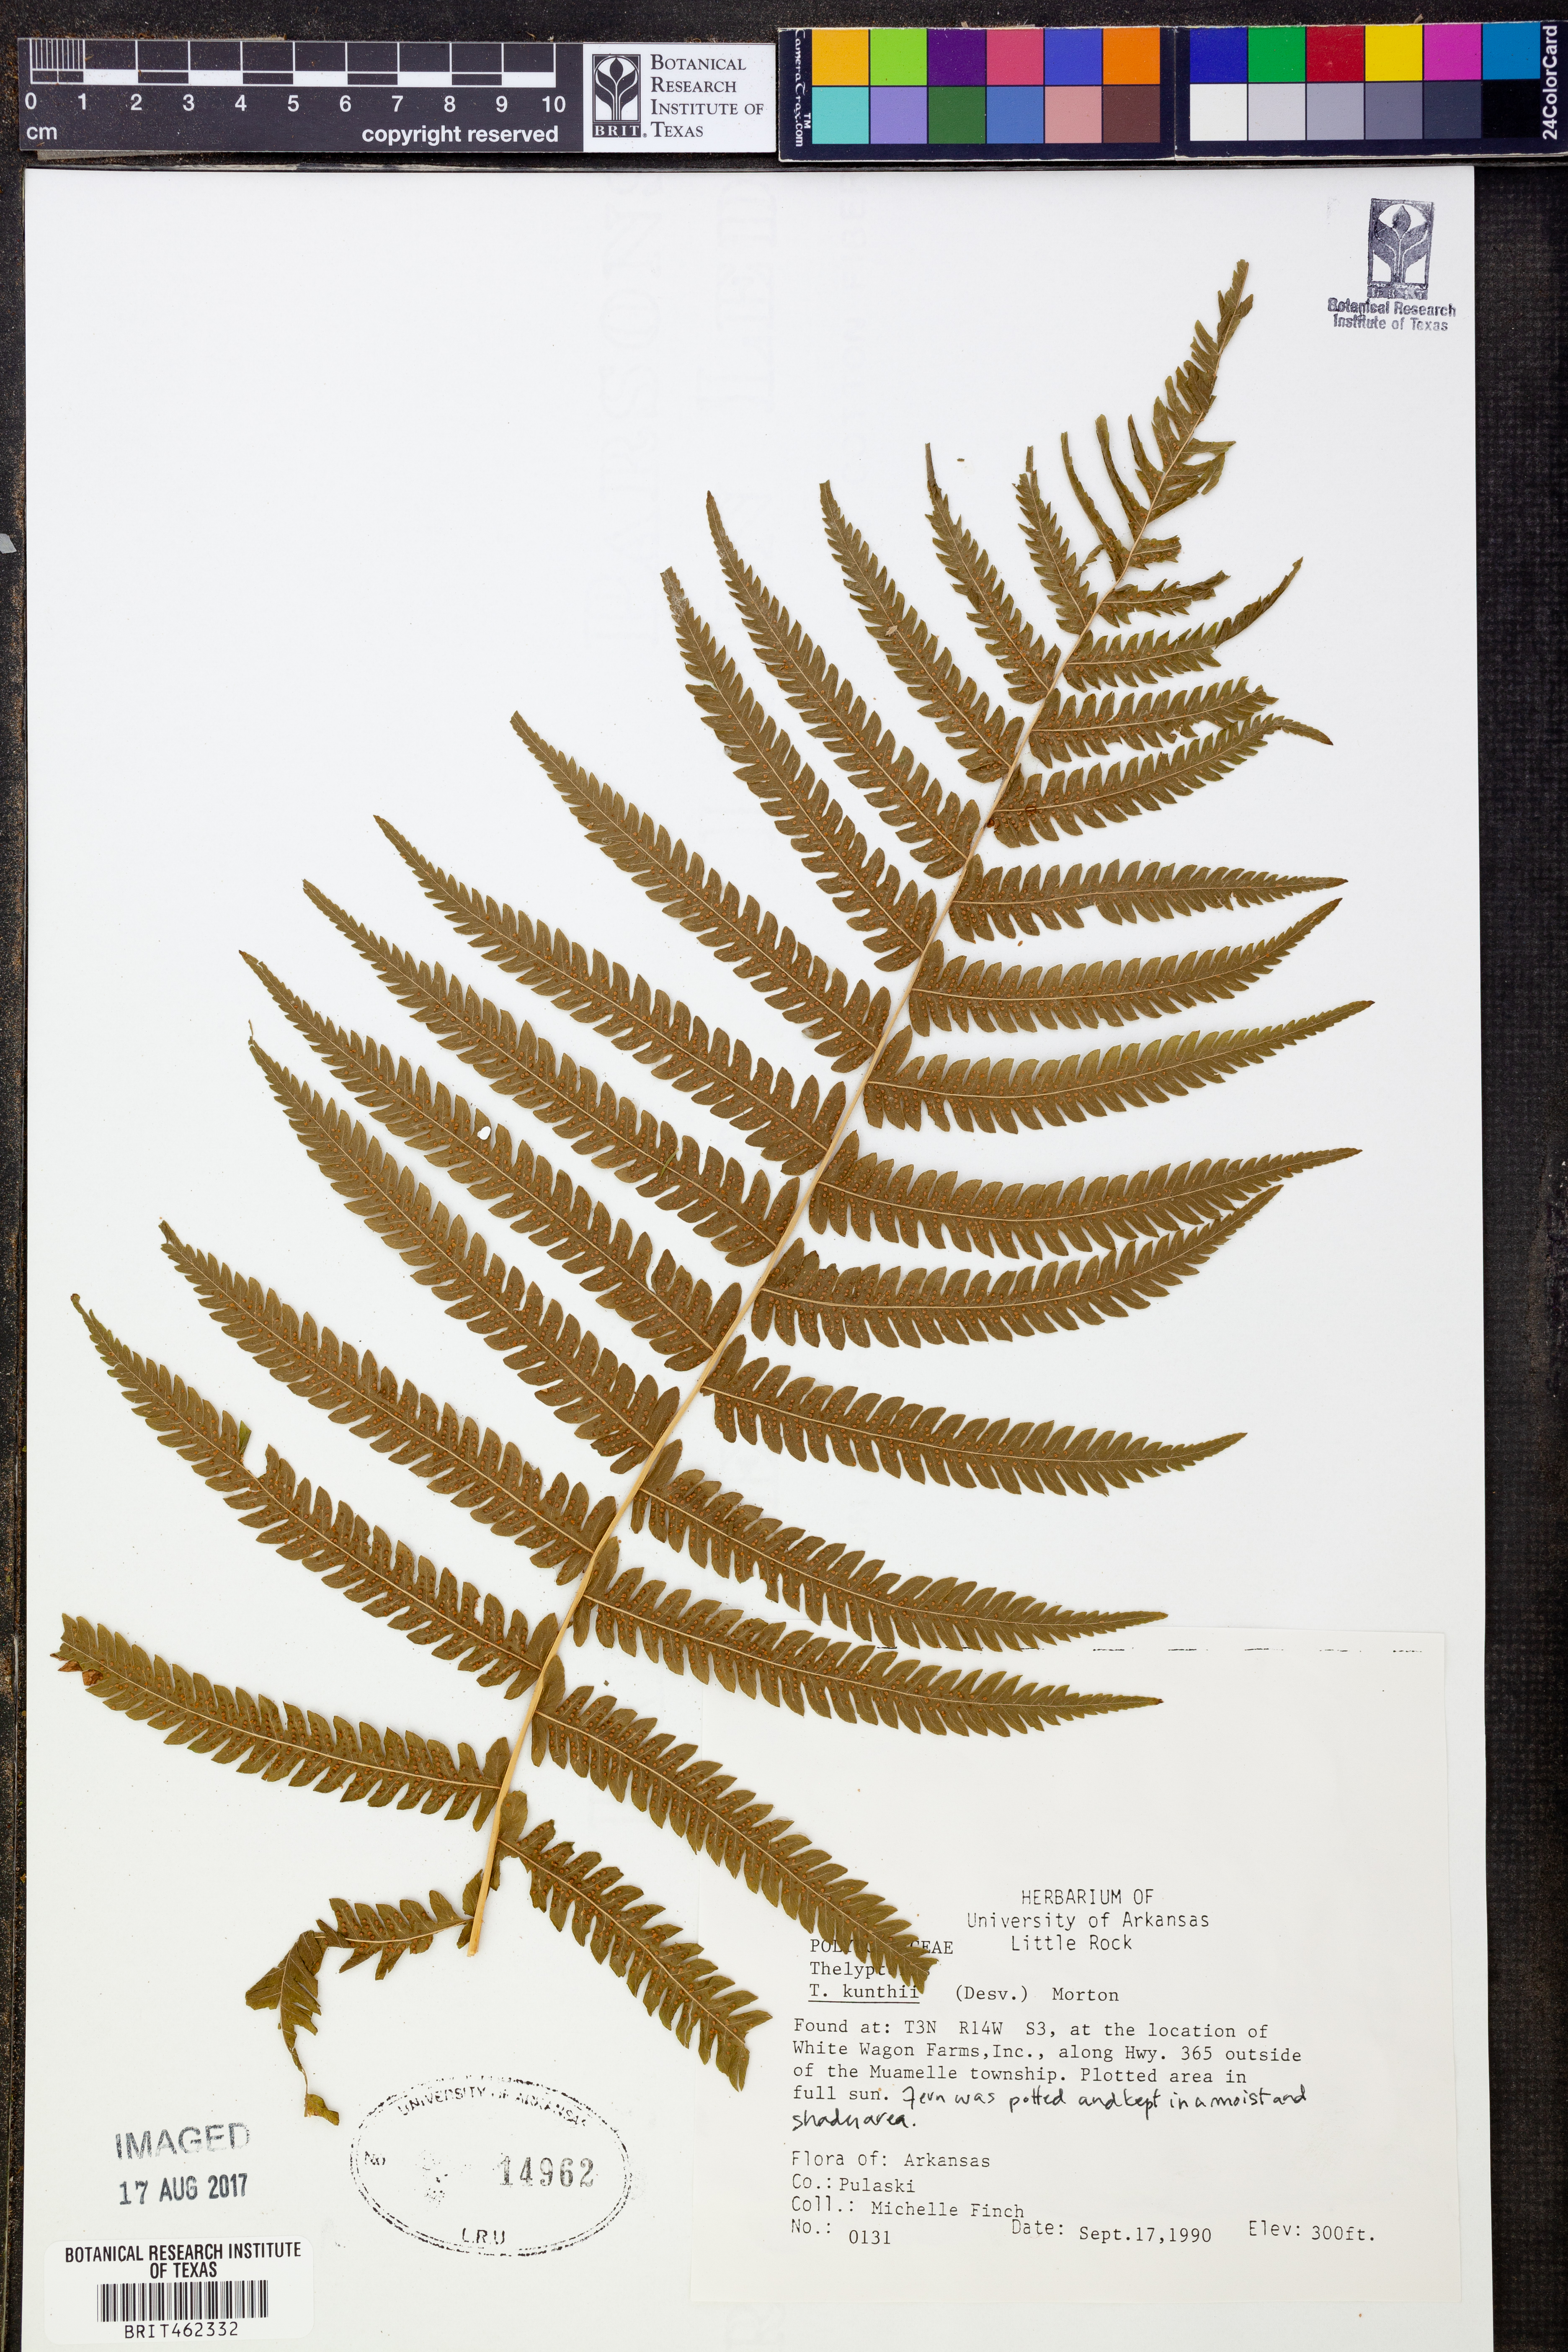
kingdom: Plantae
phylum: Tracheophyta
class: Polypodiopsida
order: Polypodiales
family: Thelypteridaceae
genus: Pelazoneuron
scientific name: Pelazoneuron kunthii
